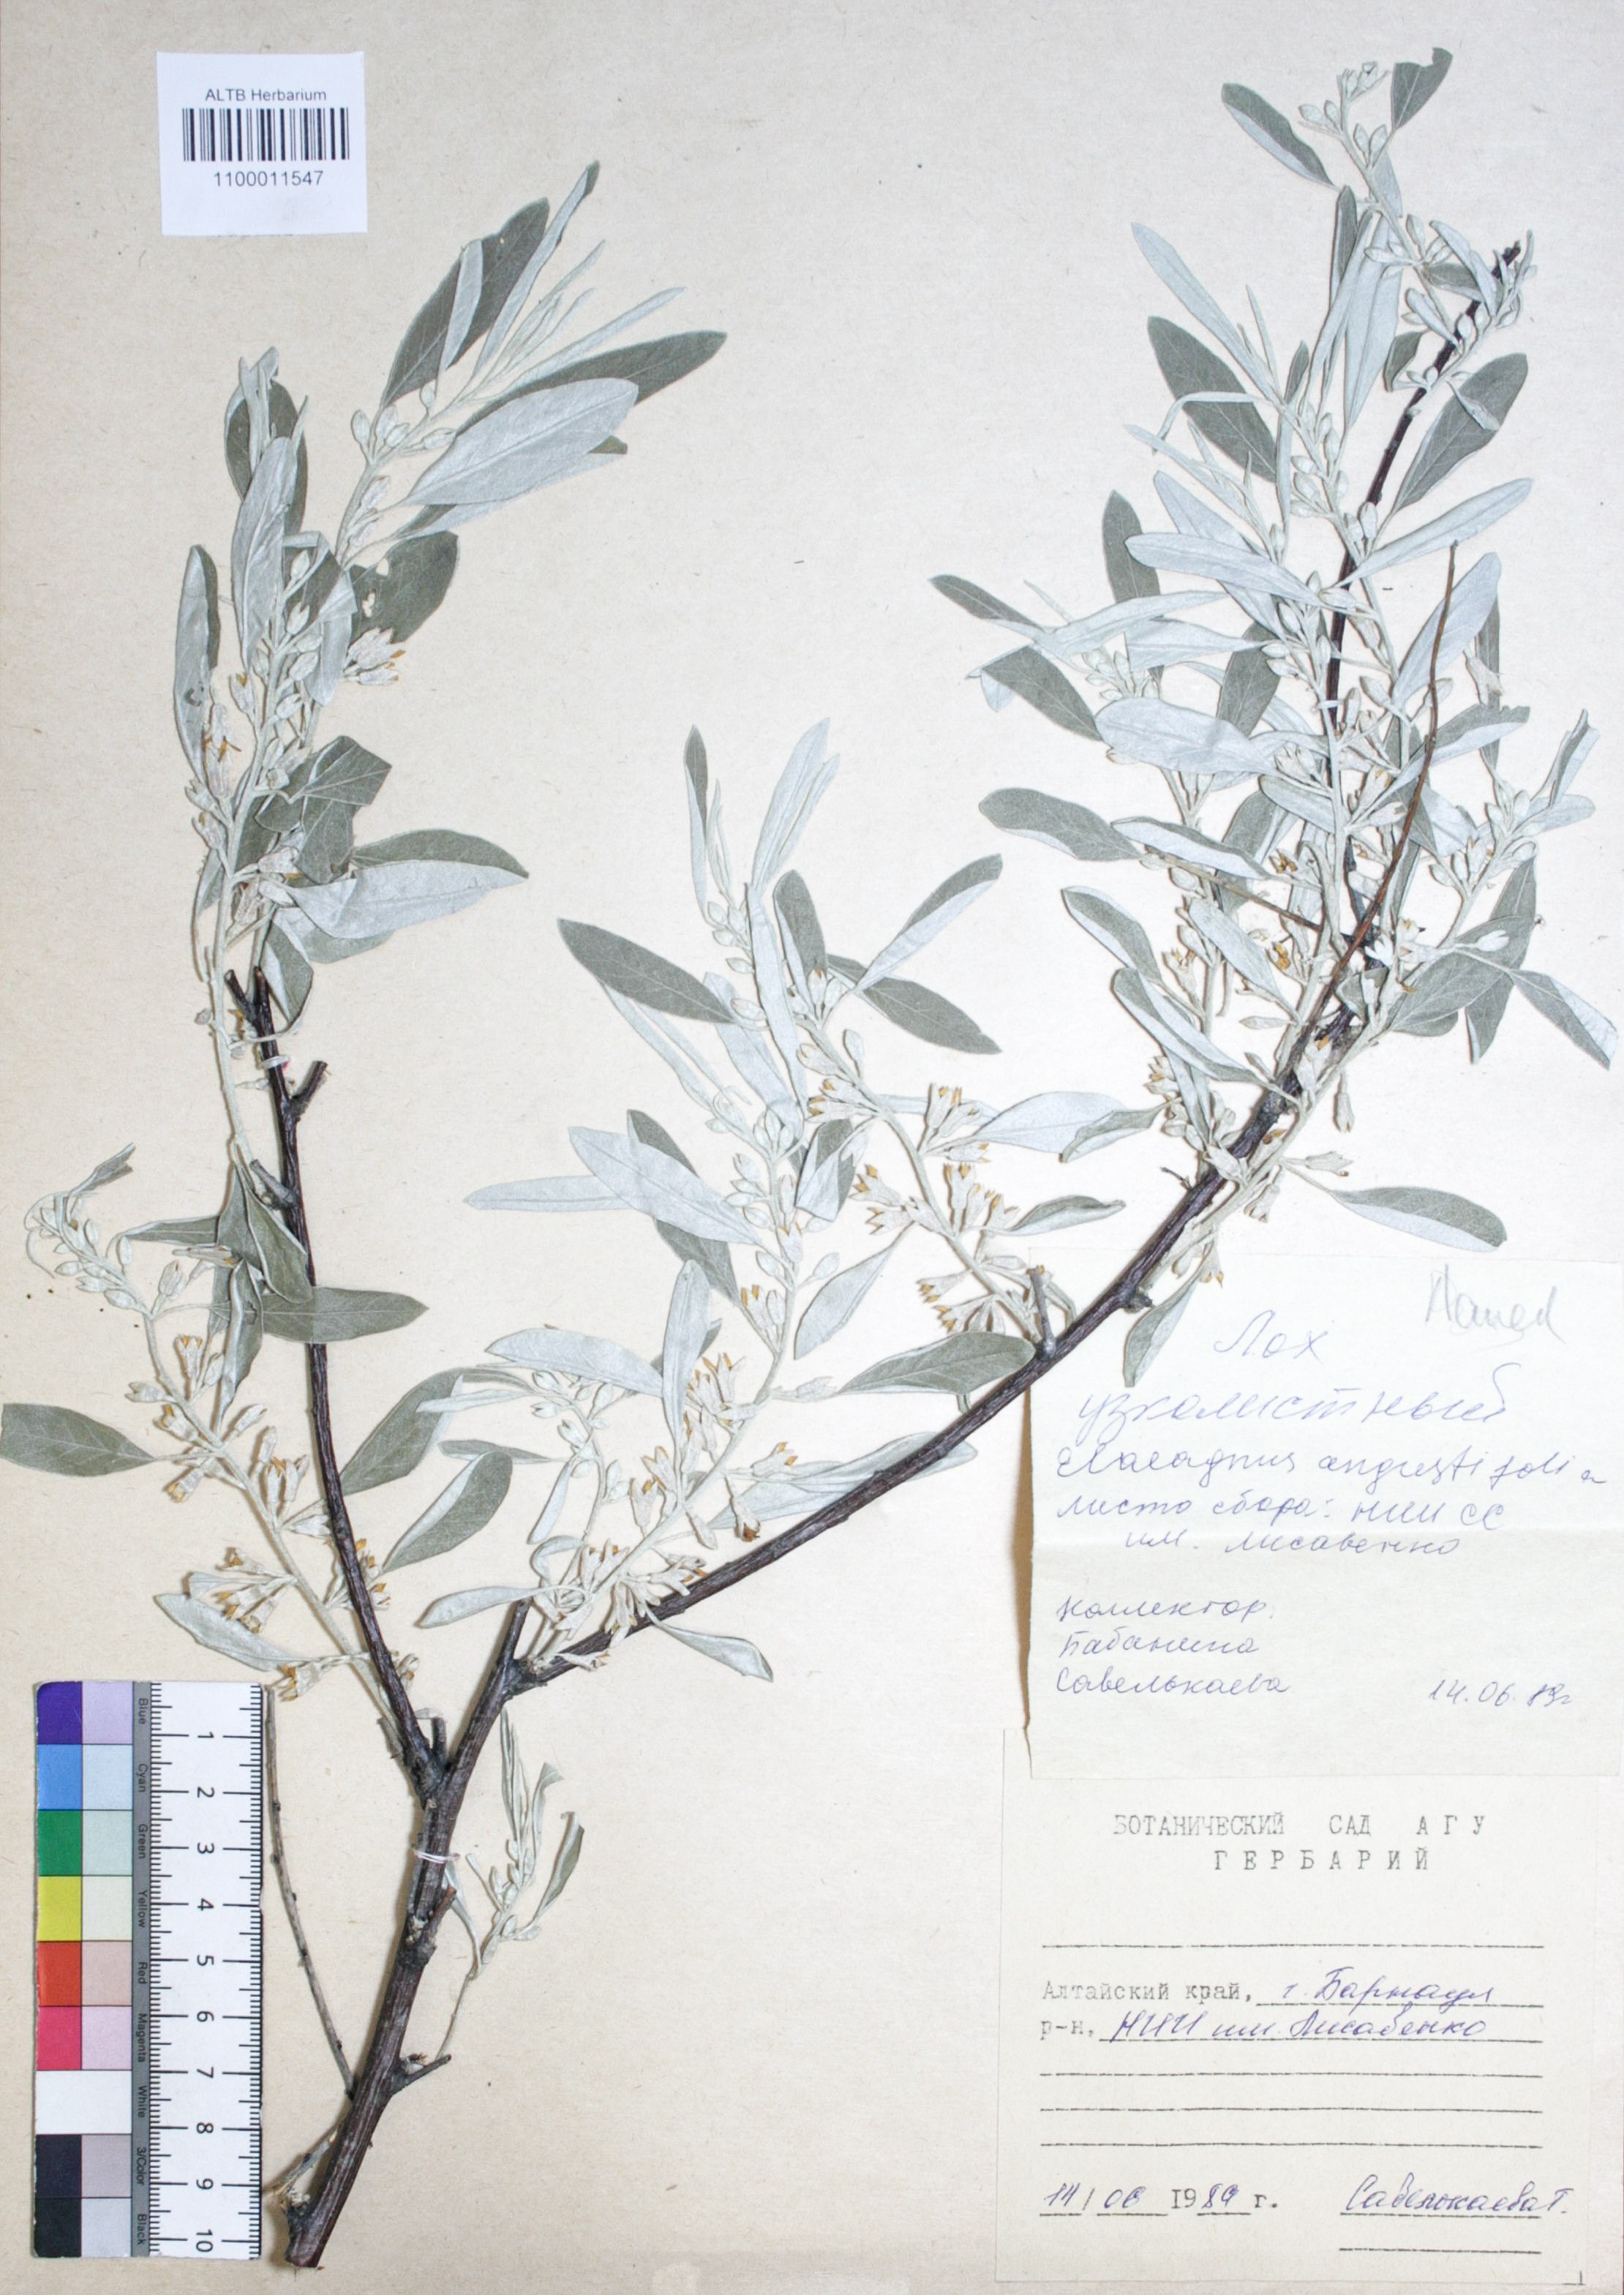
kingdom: Plantae
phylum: Tracheophyta
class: Magnoliopsida
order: Rosales
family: Elaeagnaceae
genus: Elaeagnus
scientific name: Elaeagnus angustifolia
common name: Russian olive
